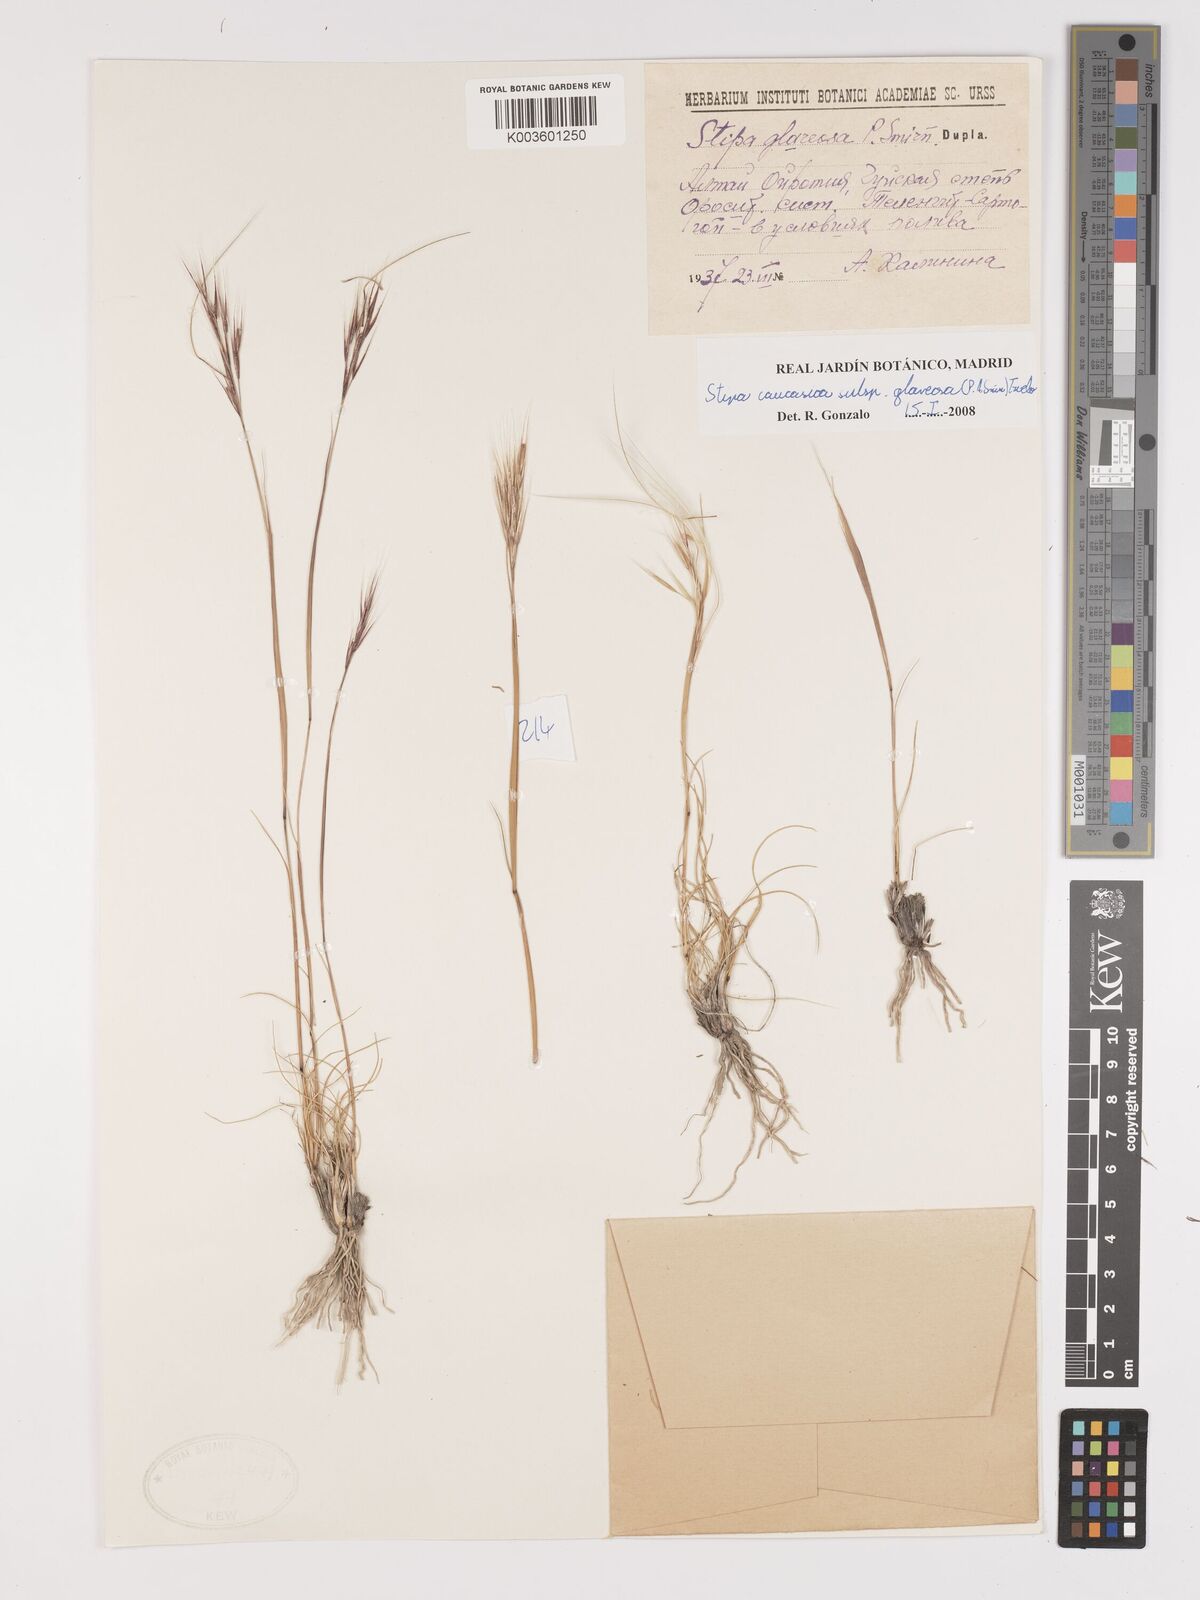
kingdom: Plantae
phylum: Tracheophyta
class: Liliopsida
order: Poales
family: Poaceae
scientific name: Poaceae
